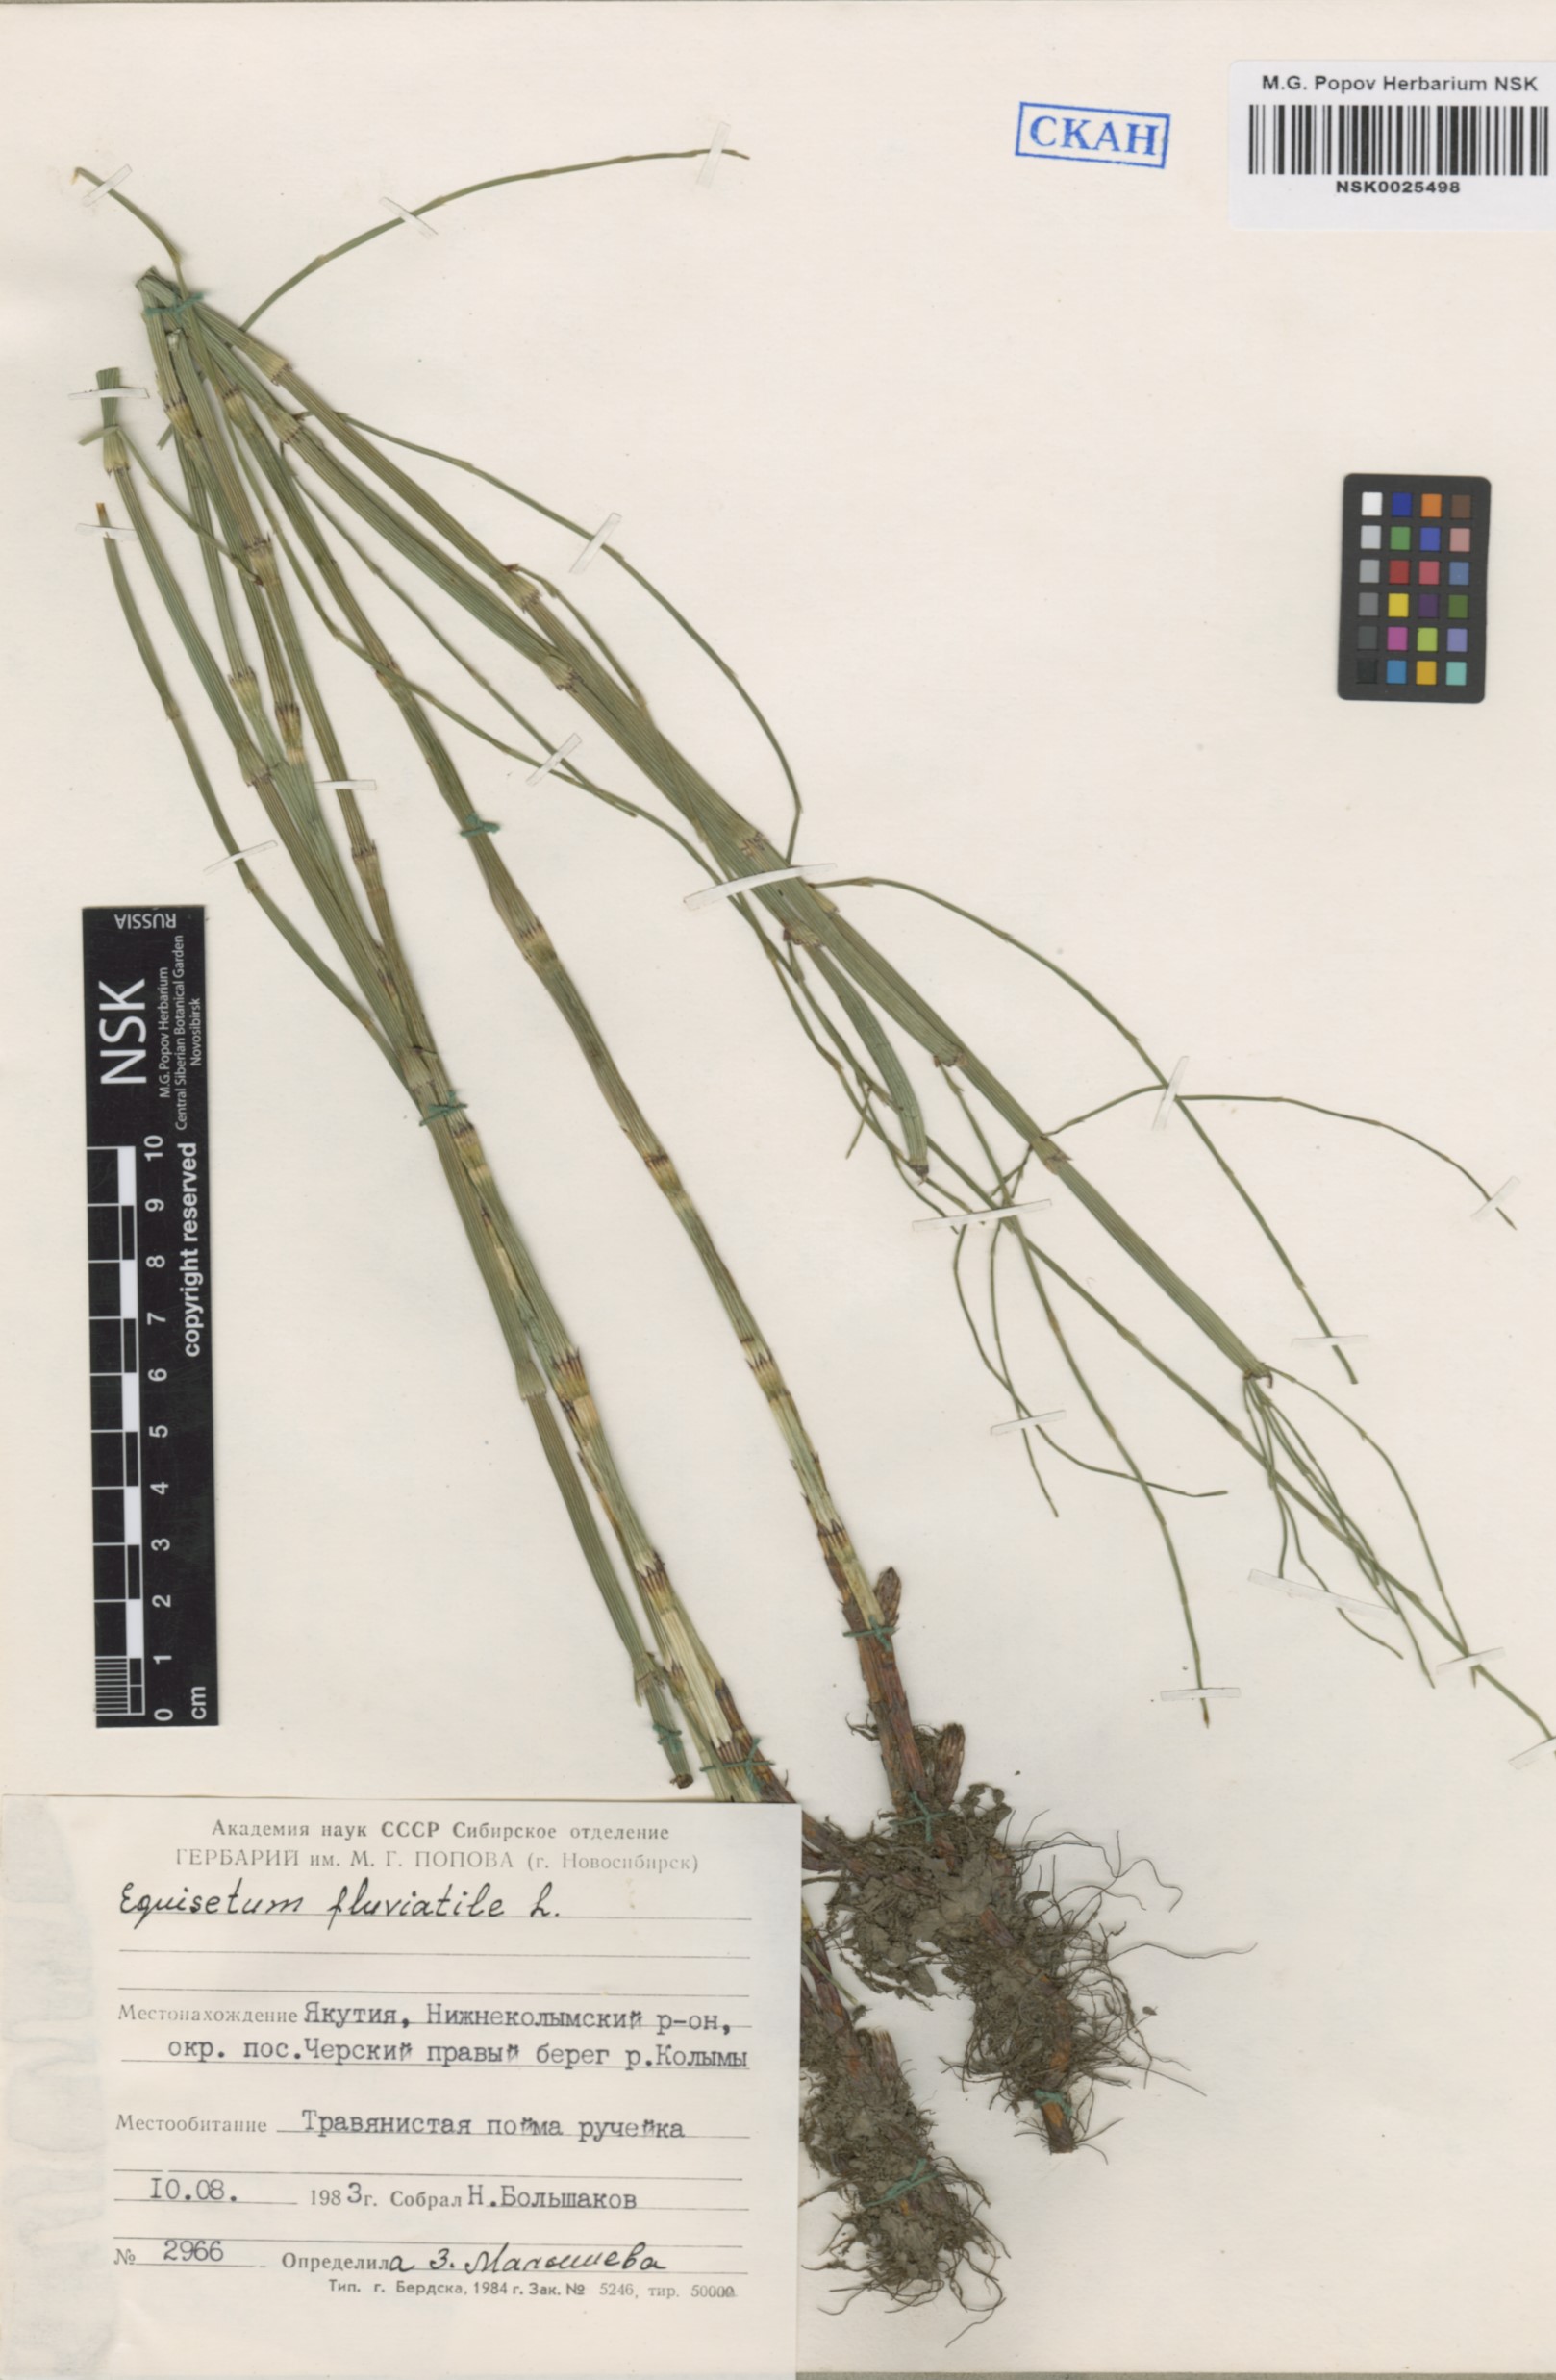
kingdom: Plantae
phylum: Tracheophyta
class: Polypodiopsida
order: Equisetales
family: Equisetaceae
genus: Equisetum
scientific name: Equisetum fluviatile
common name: Water horsetail
